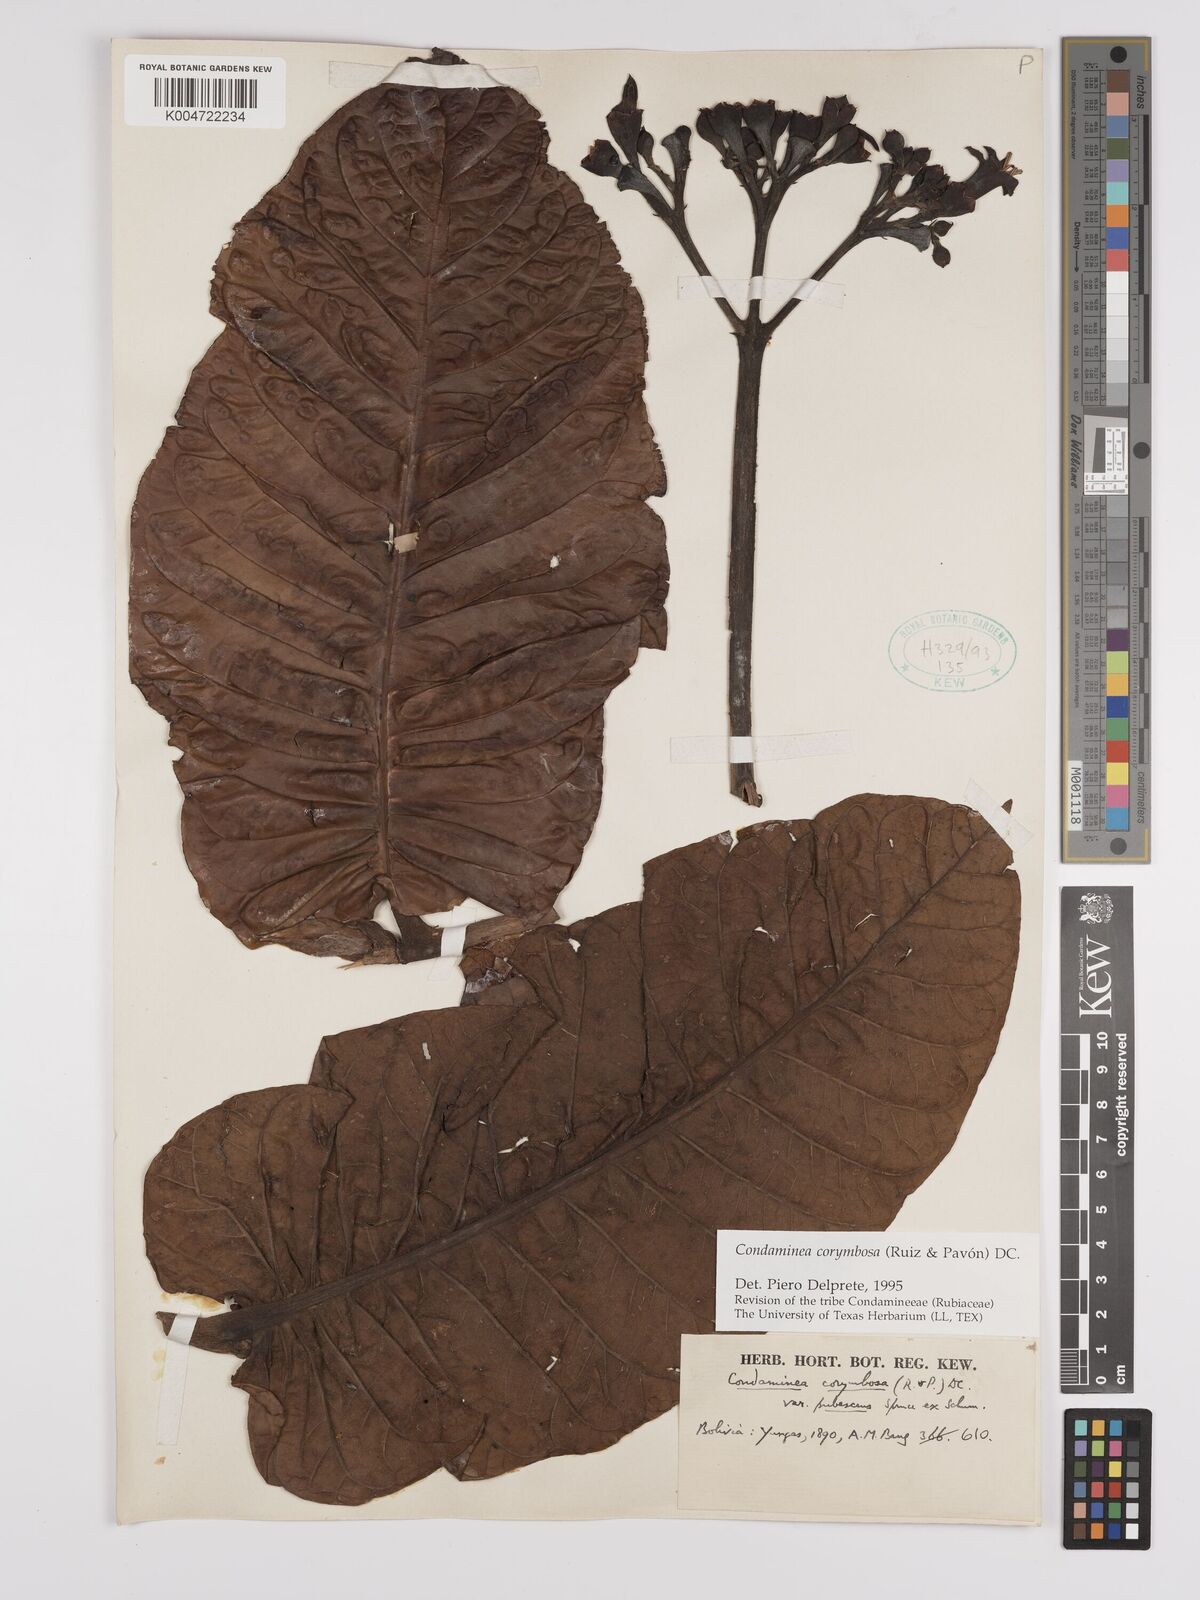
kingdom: Plantae
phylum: Tracheophyta
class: Magnoliopsida
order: Gentianales
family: Rubiaceae
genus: Condaminea
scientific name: Condaminea corymbosa
